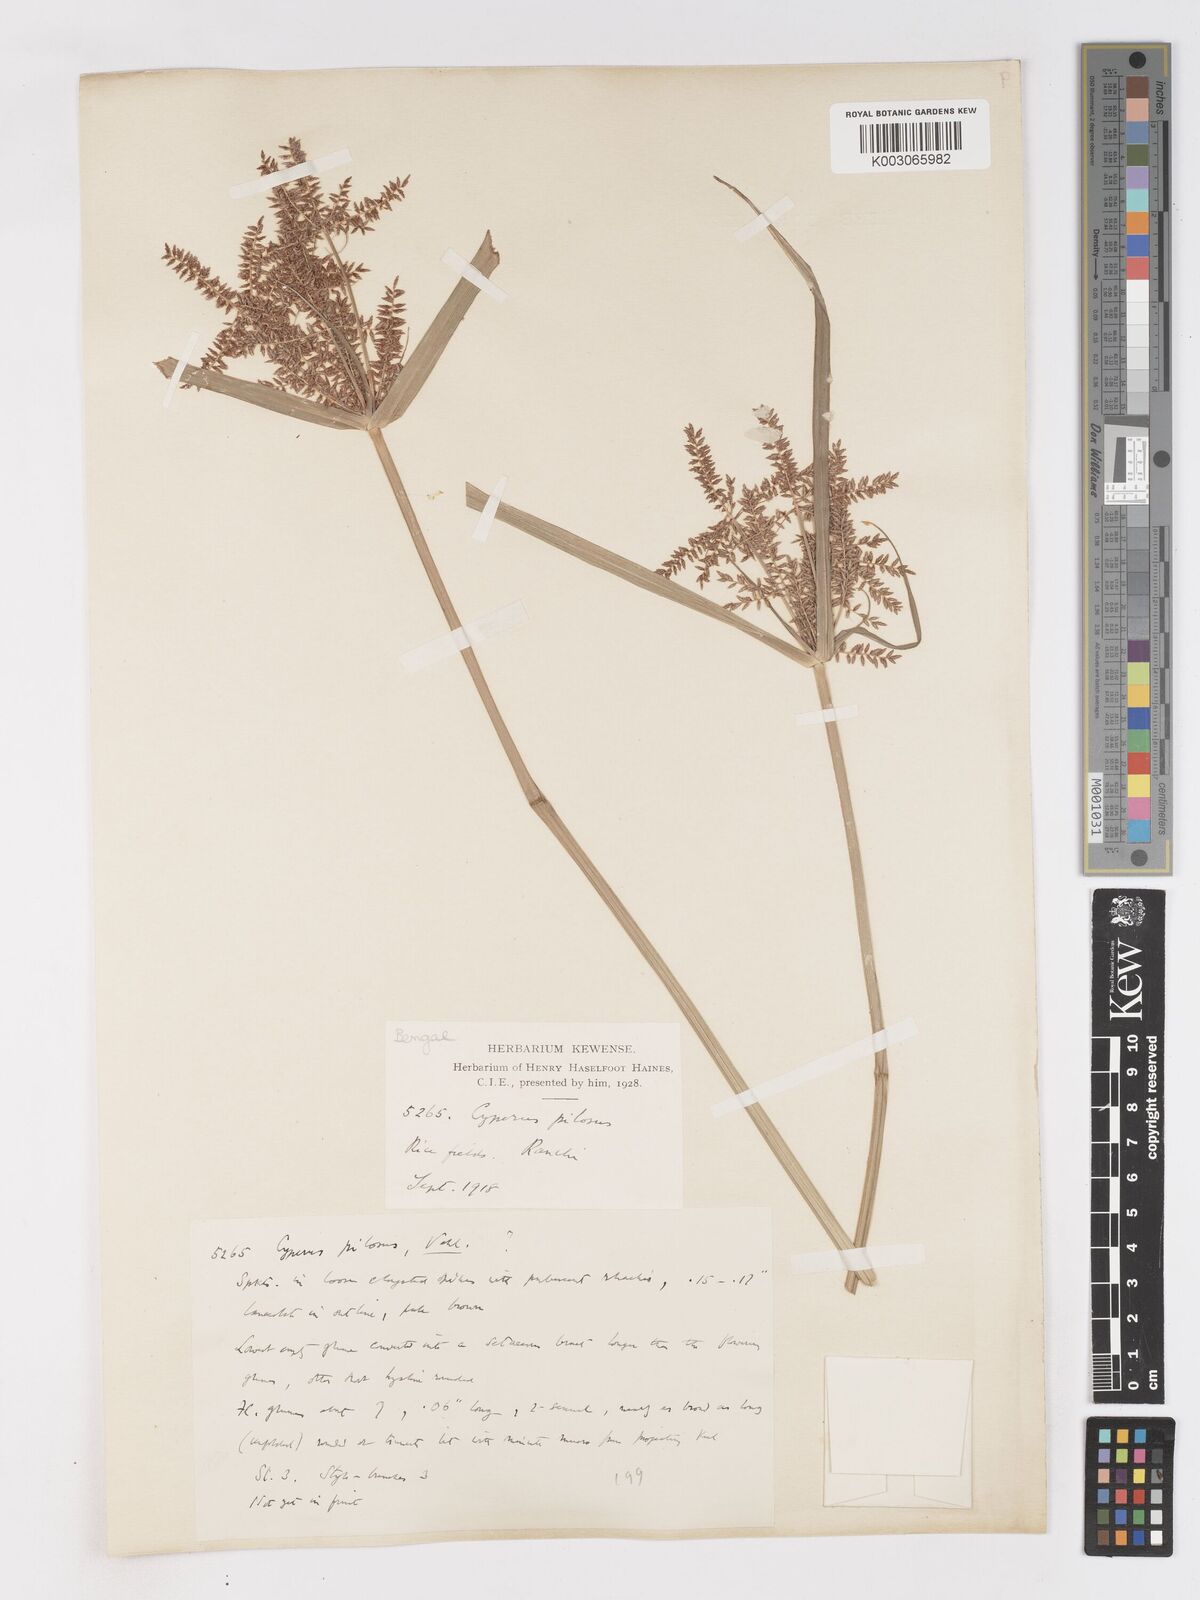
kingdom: Plantae
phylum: Tracheophyta
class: Liliopsida
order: Poales
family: Cyperaceae
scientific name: Cyperaceae
